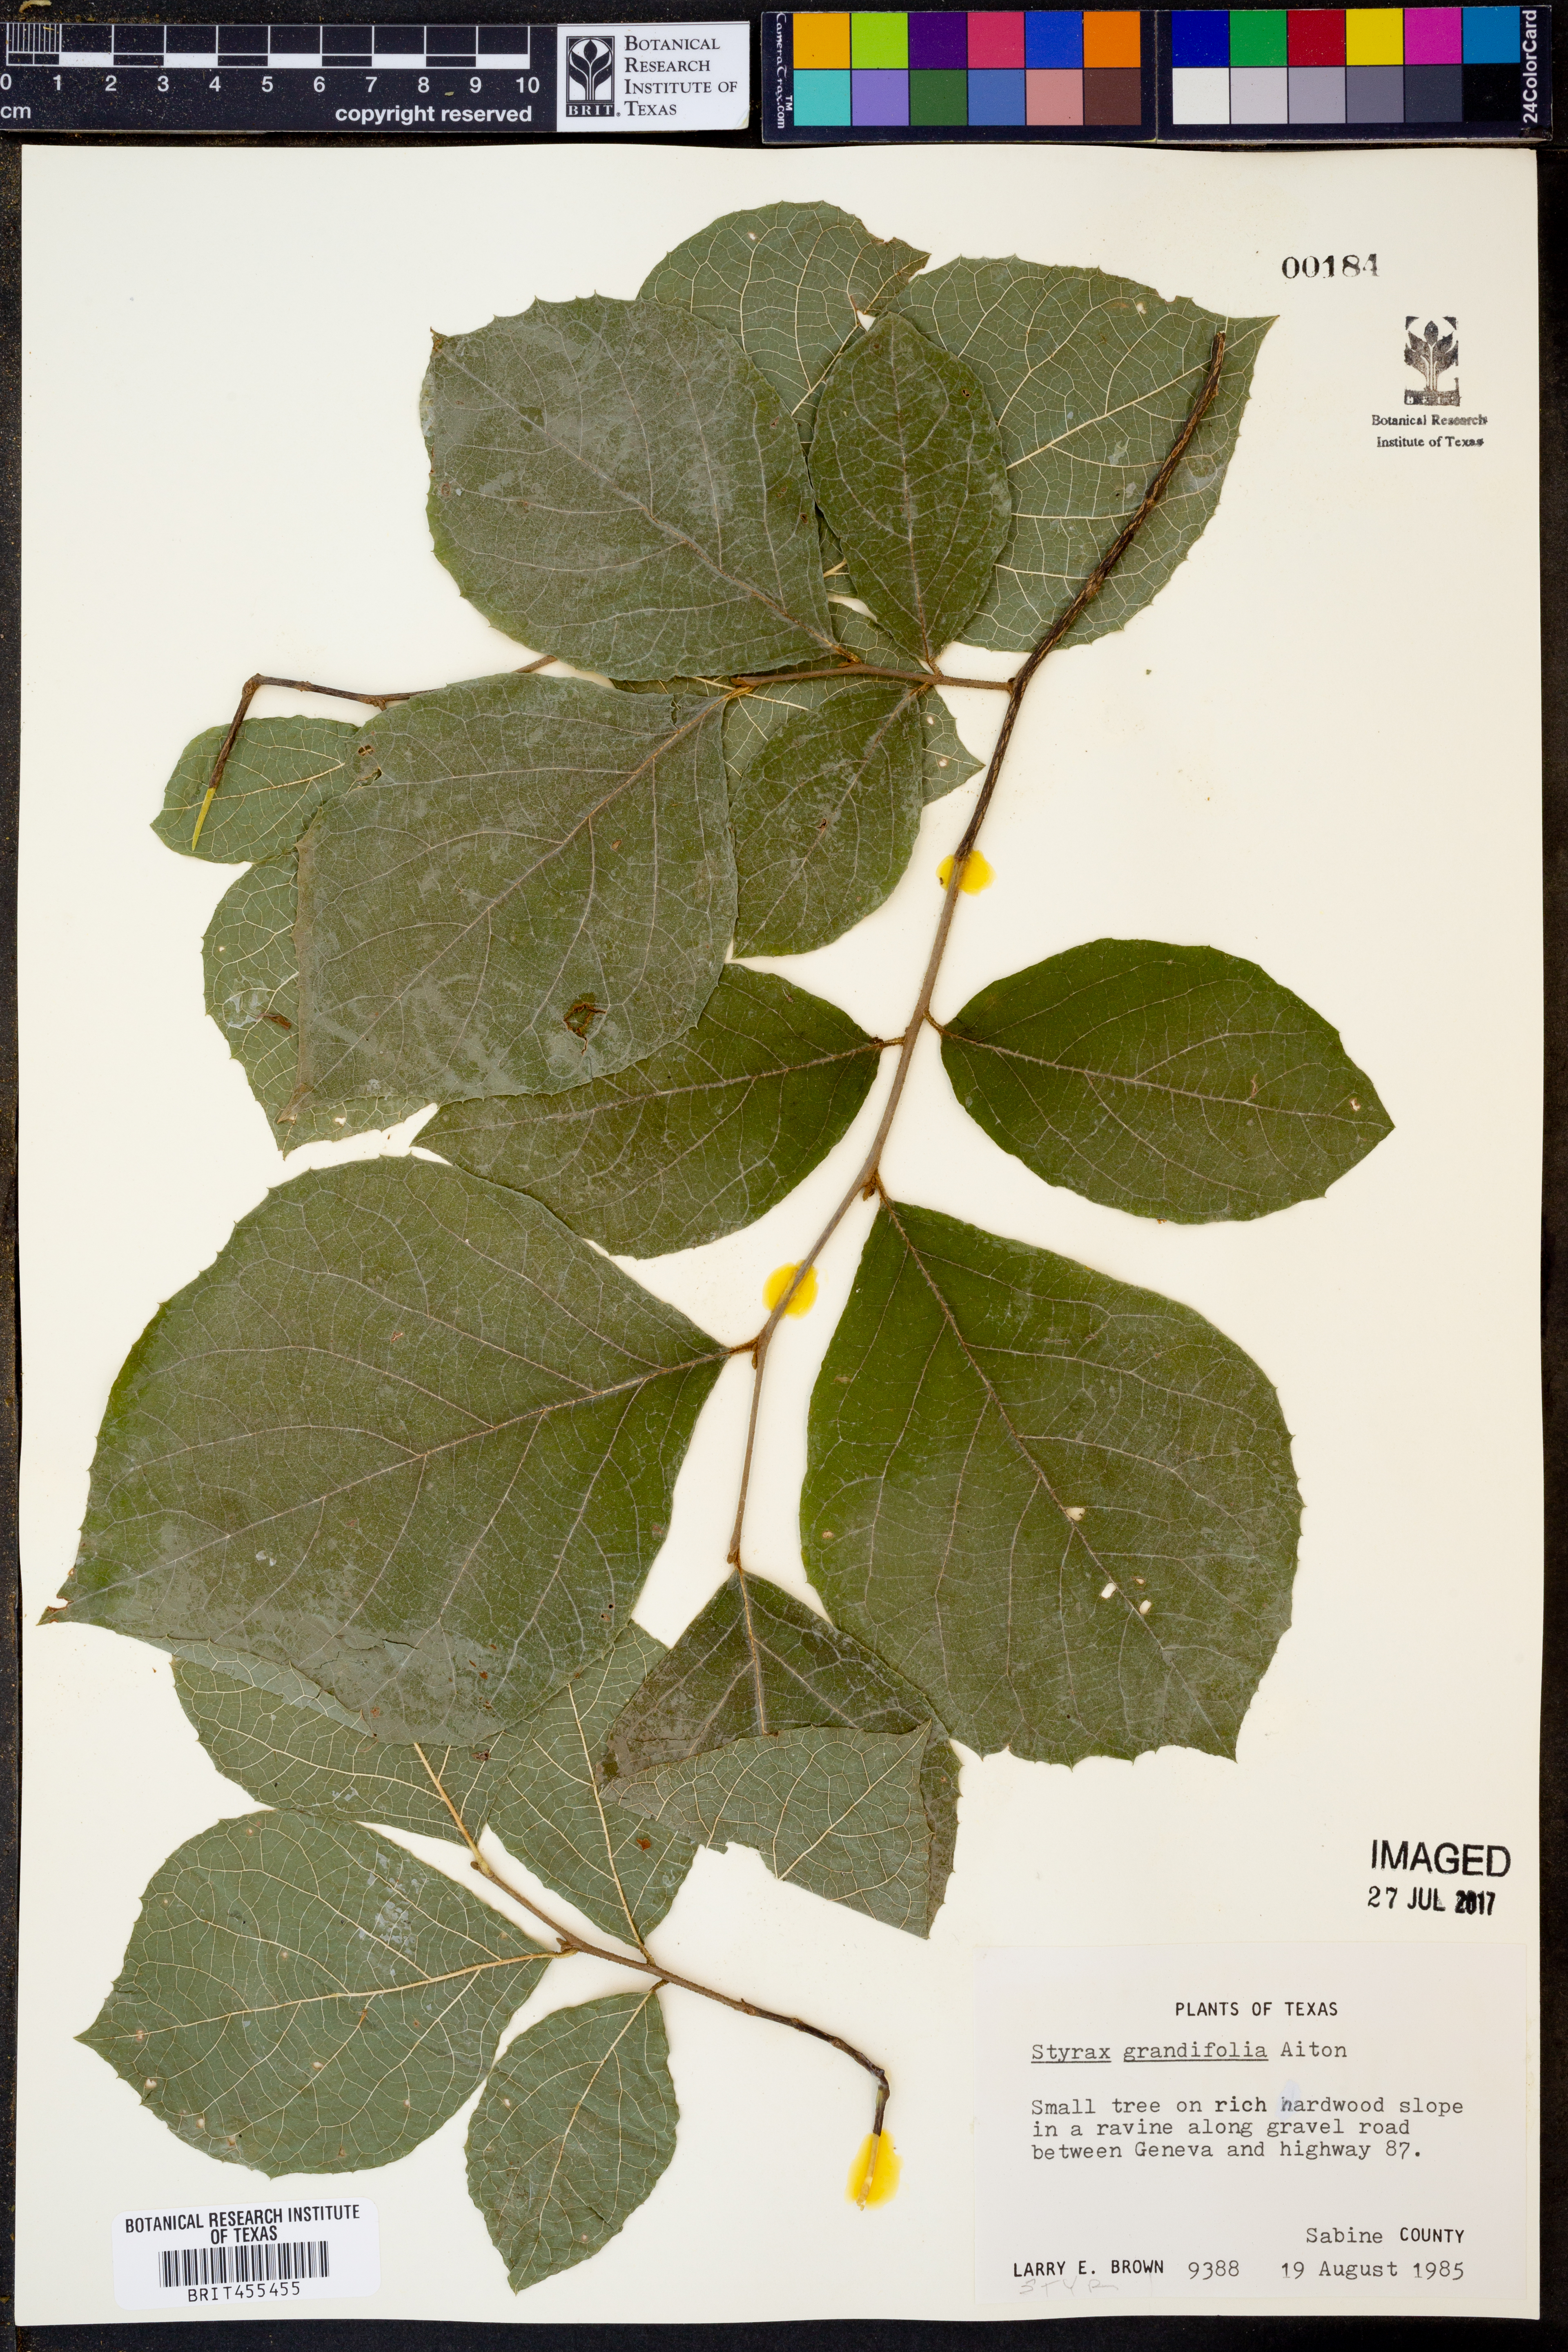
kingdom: Plantae
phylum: Tracheophyta
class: Magnoliopsida
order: Ericales
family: Styracaceae
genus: Styrax
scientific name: Styrax grandifolius
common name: Big-leaf snowbell
